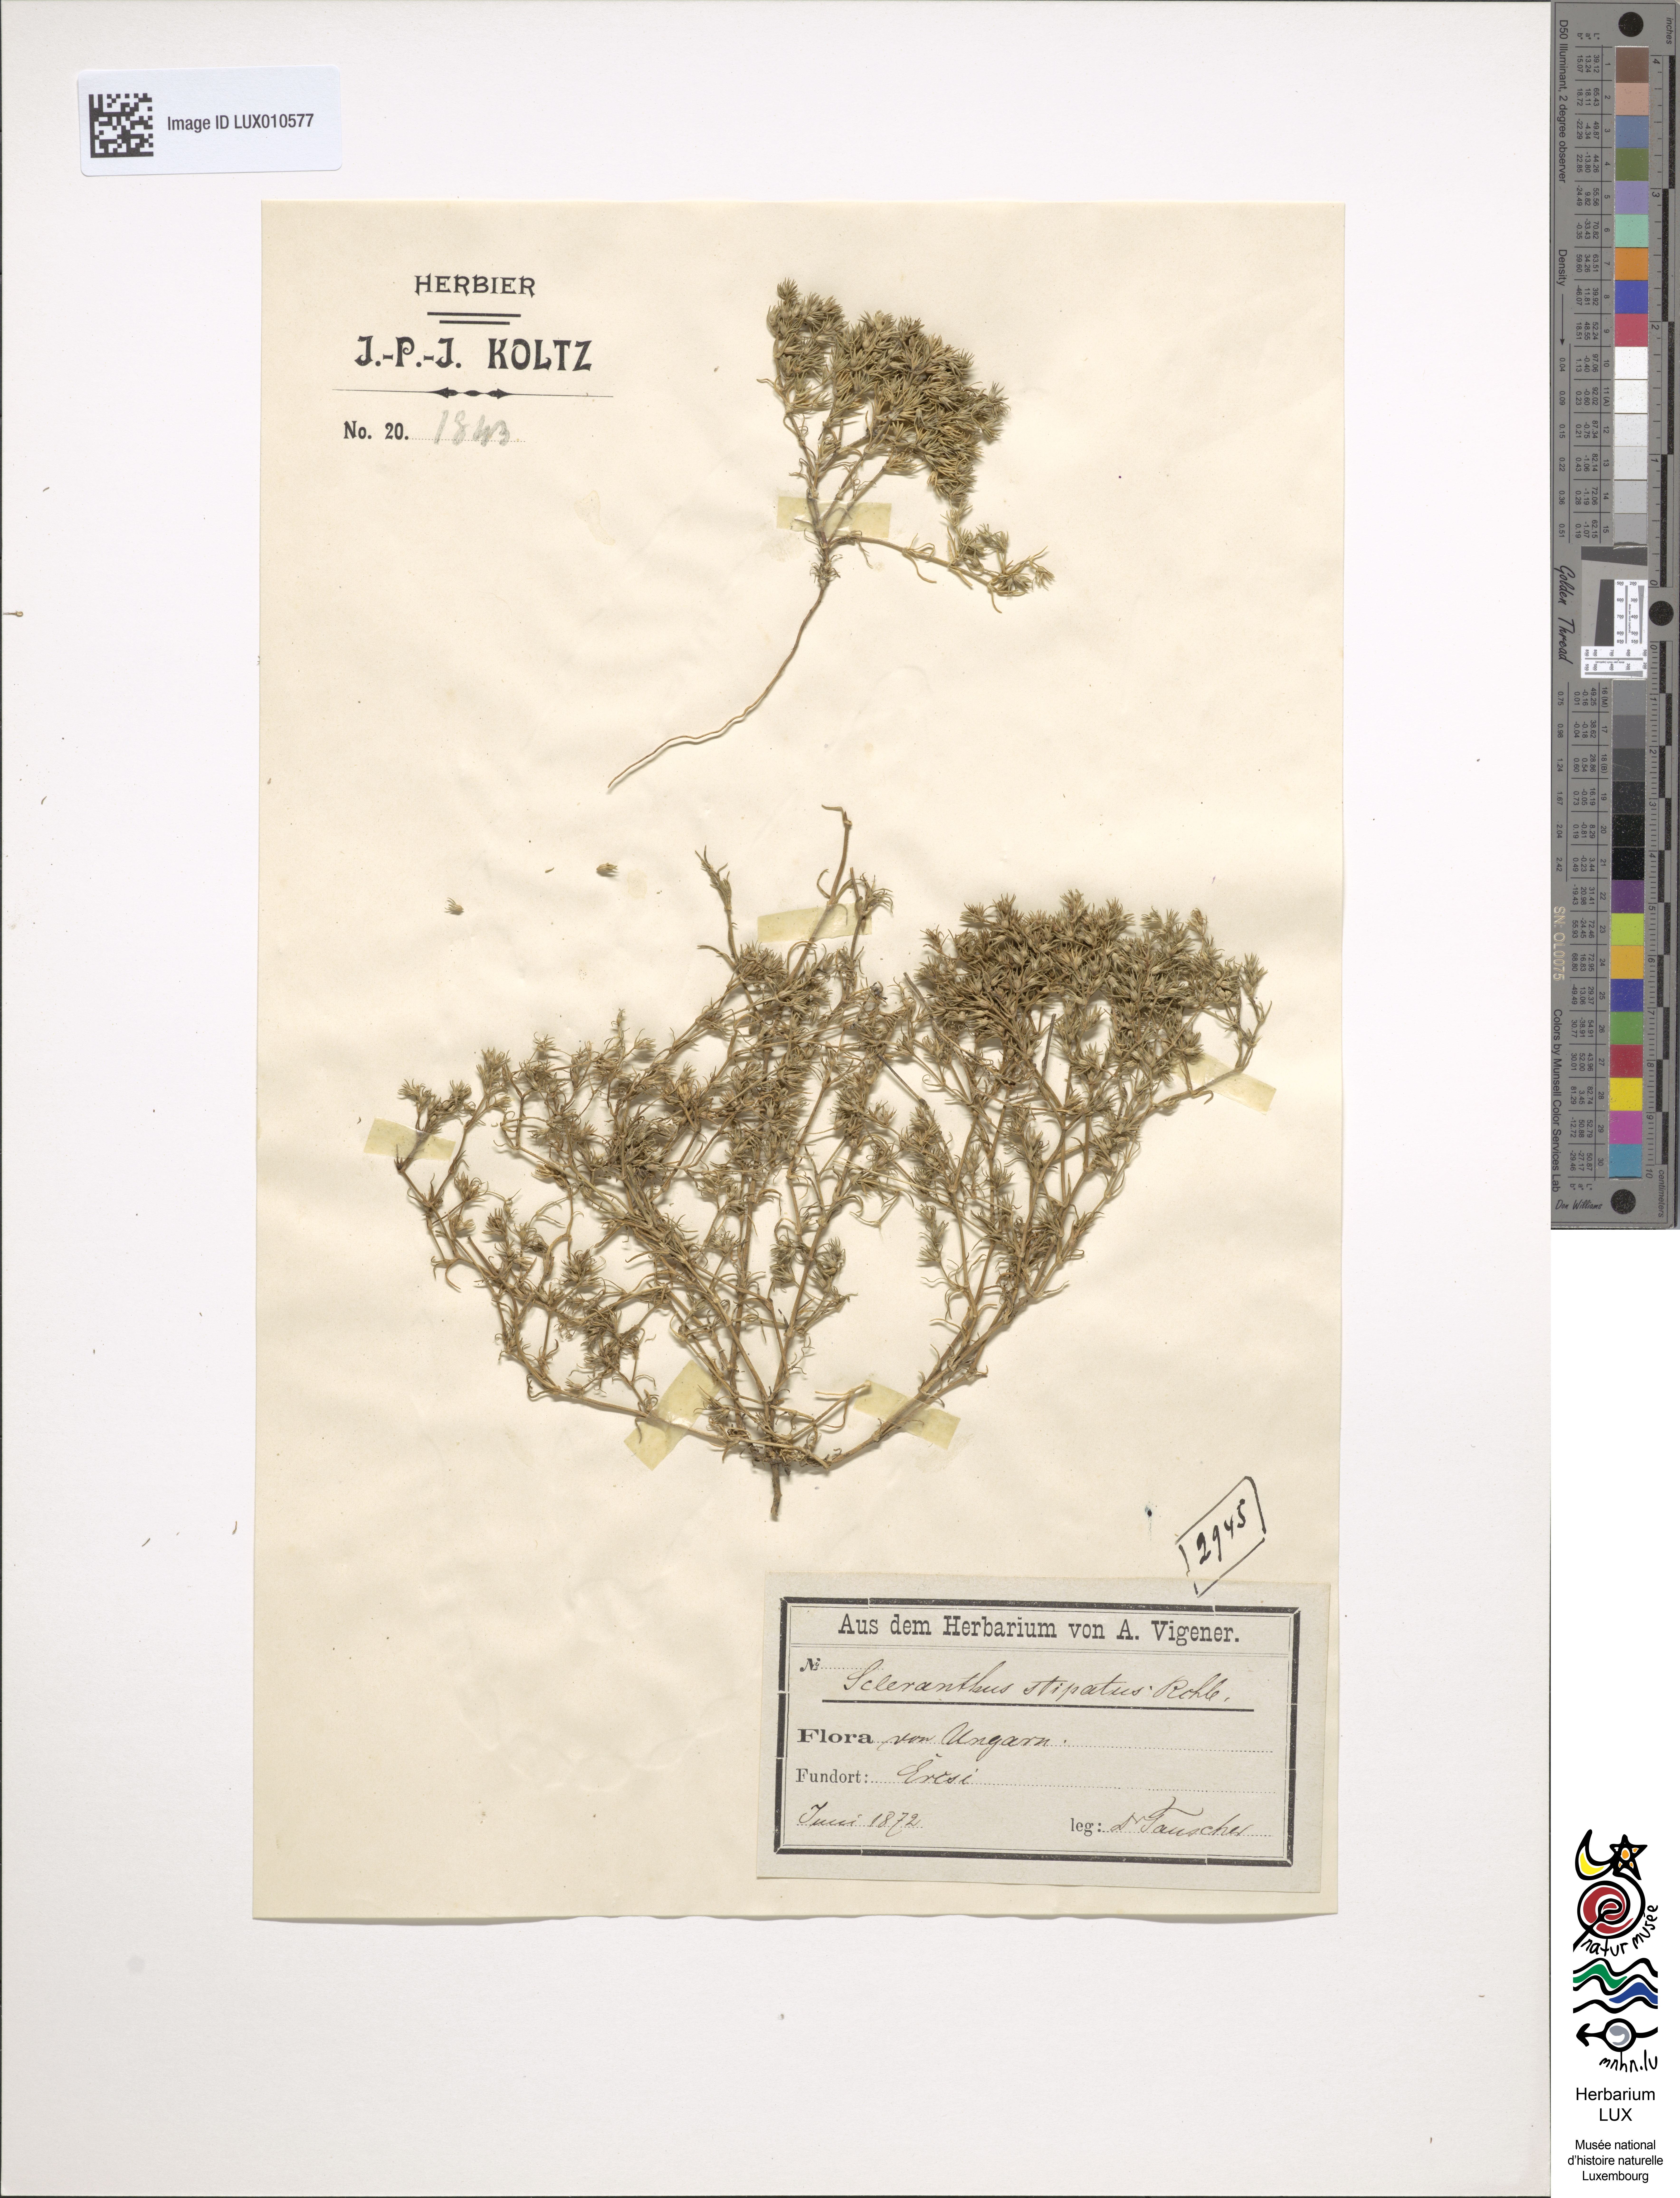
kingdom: Plantae
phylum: Tracheophyta
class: Magnoliopsida
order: Caryophyllales
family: Caryophyllaceae
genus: Scleranthus
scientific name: Scleranthus annuus
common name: Annual knawel
